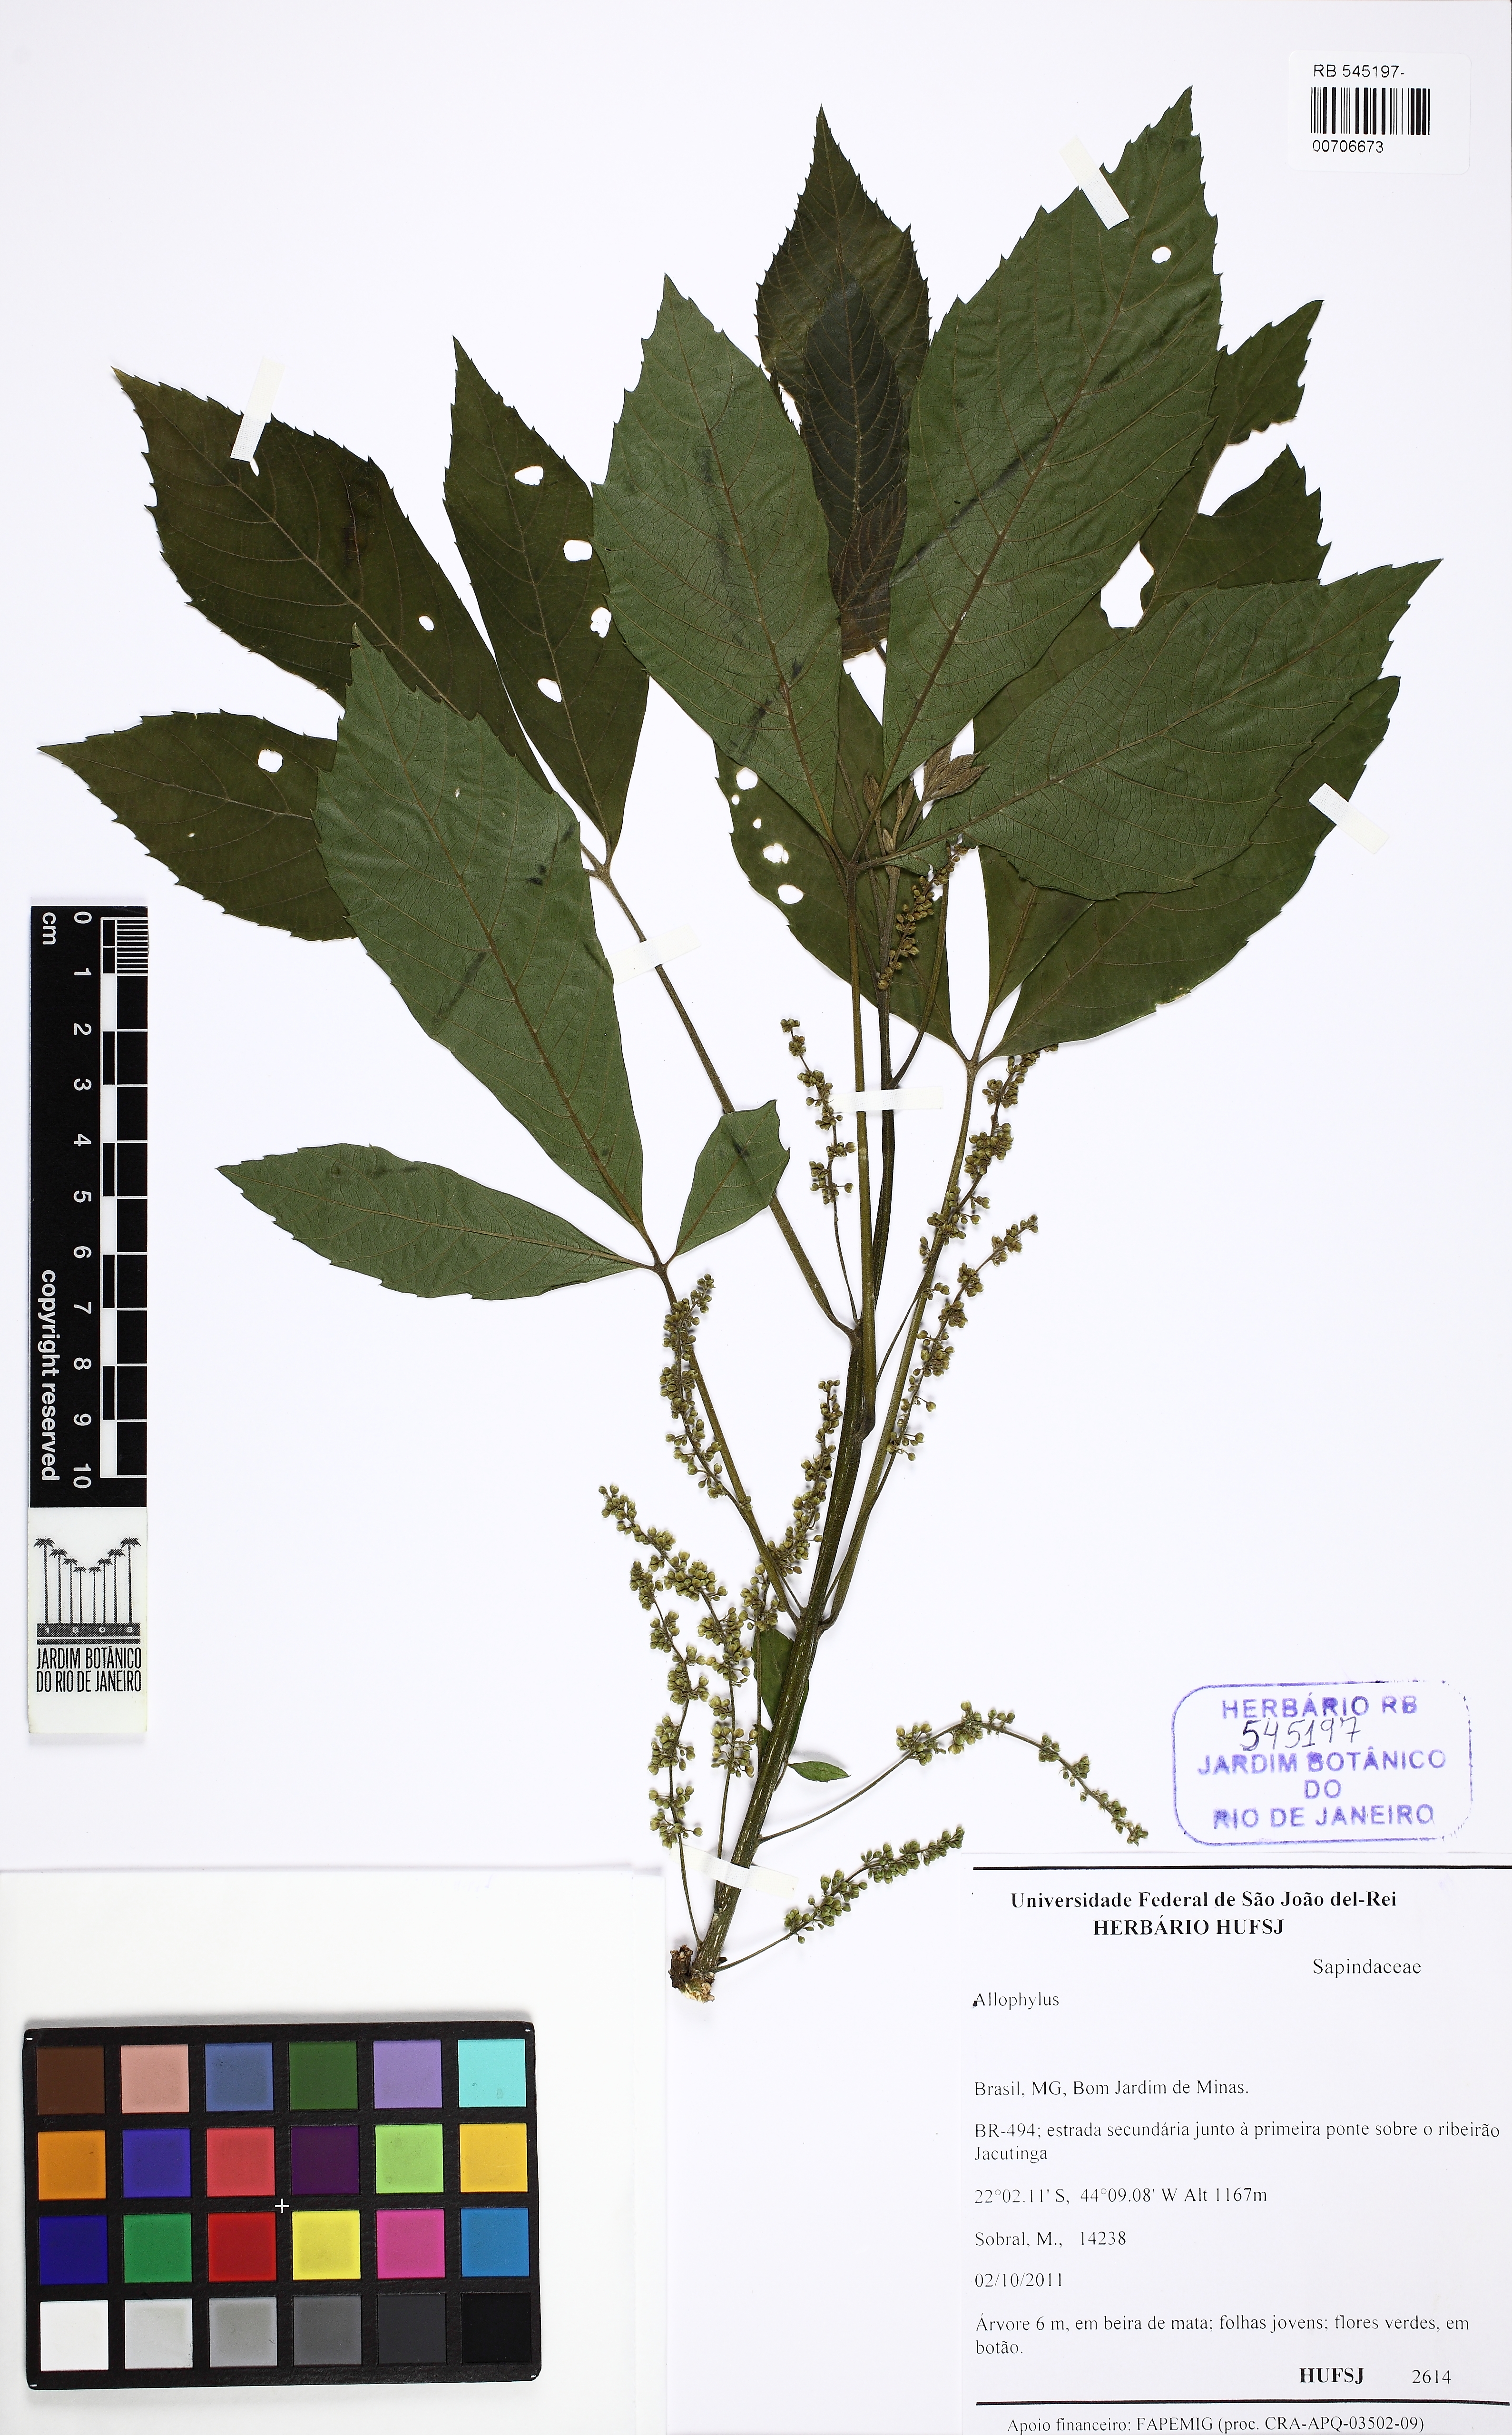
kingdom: Plantae
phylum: Tracheophyta
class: Magnoliopsida
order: Sapindales
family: Sapindaceae
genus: Allophylus
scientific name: Allophylus racemosus
